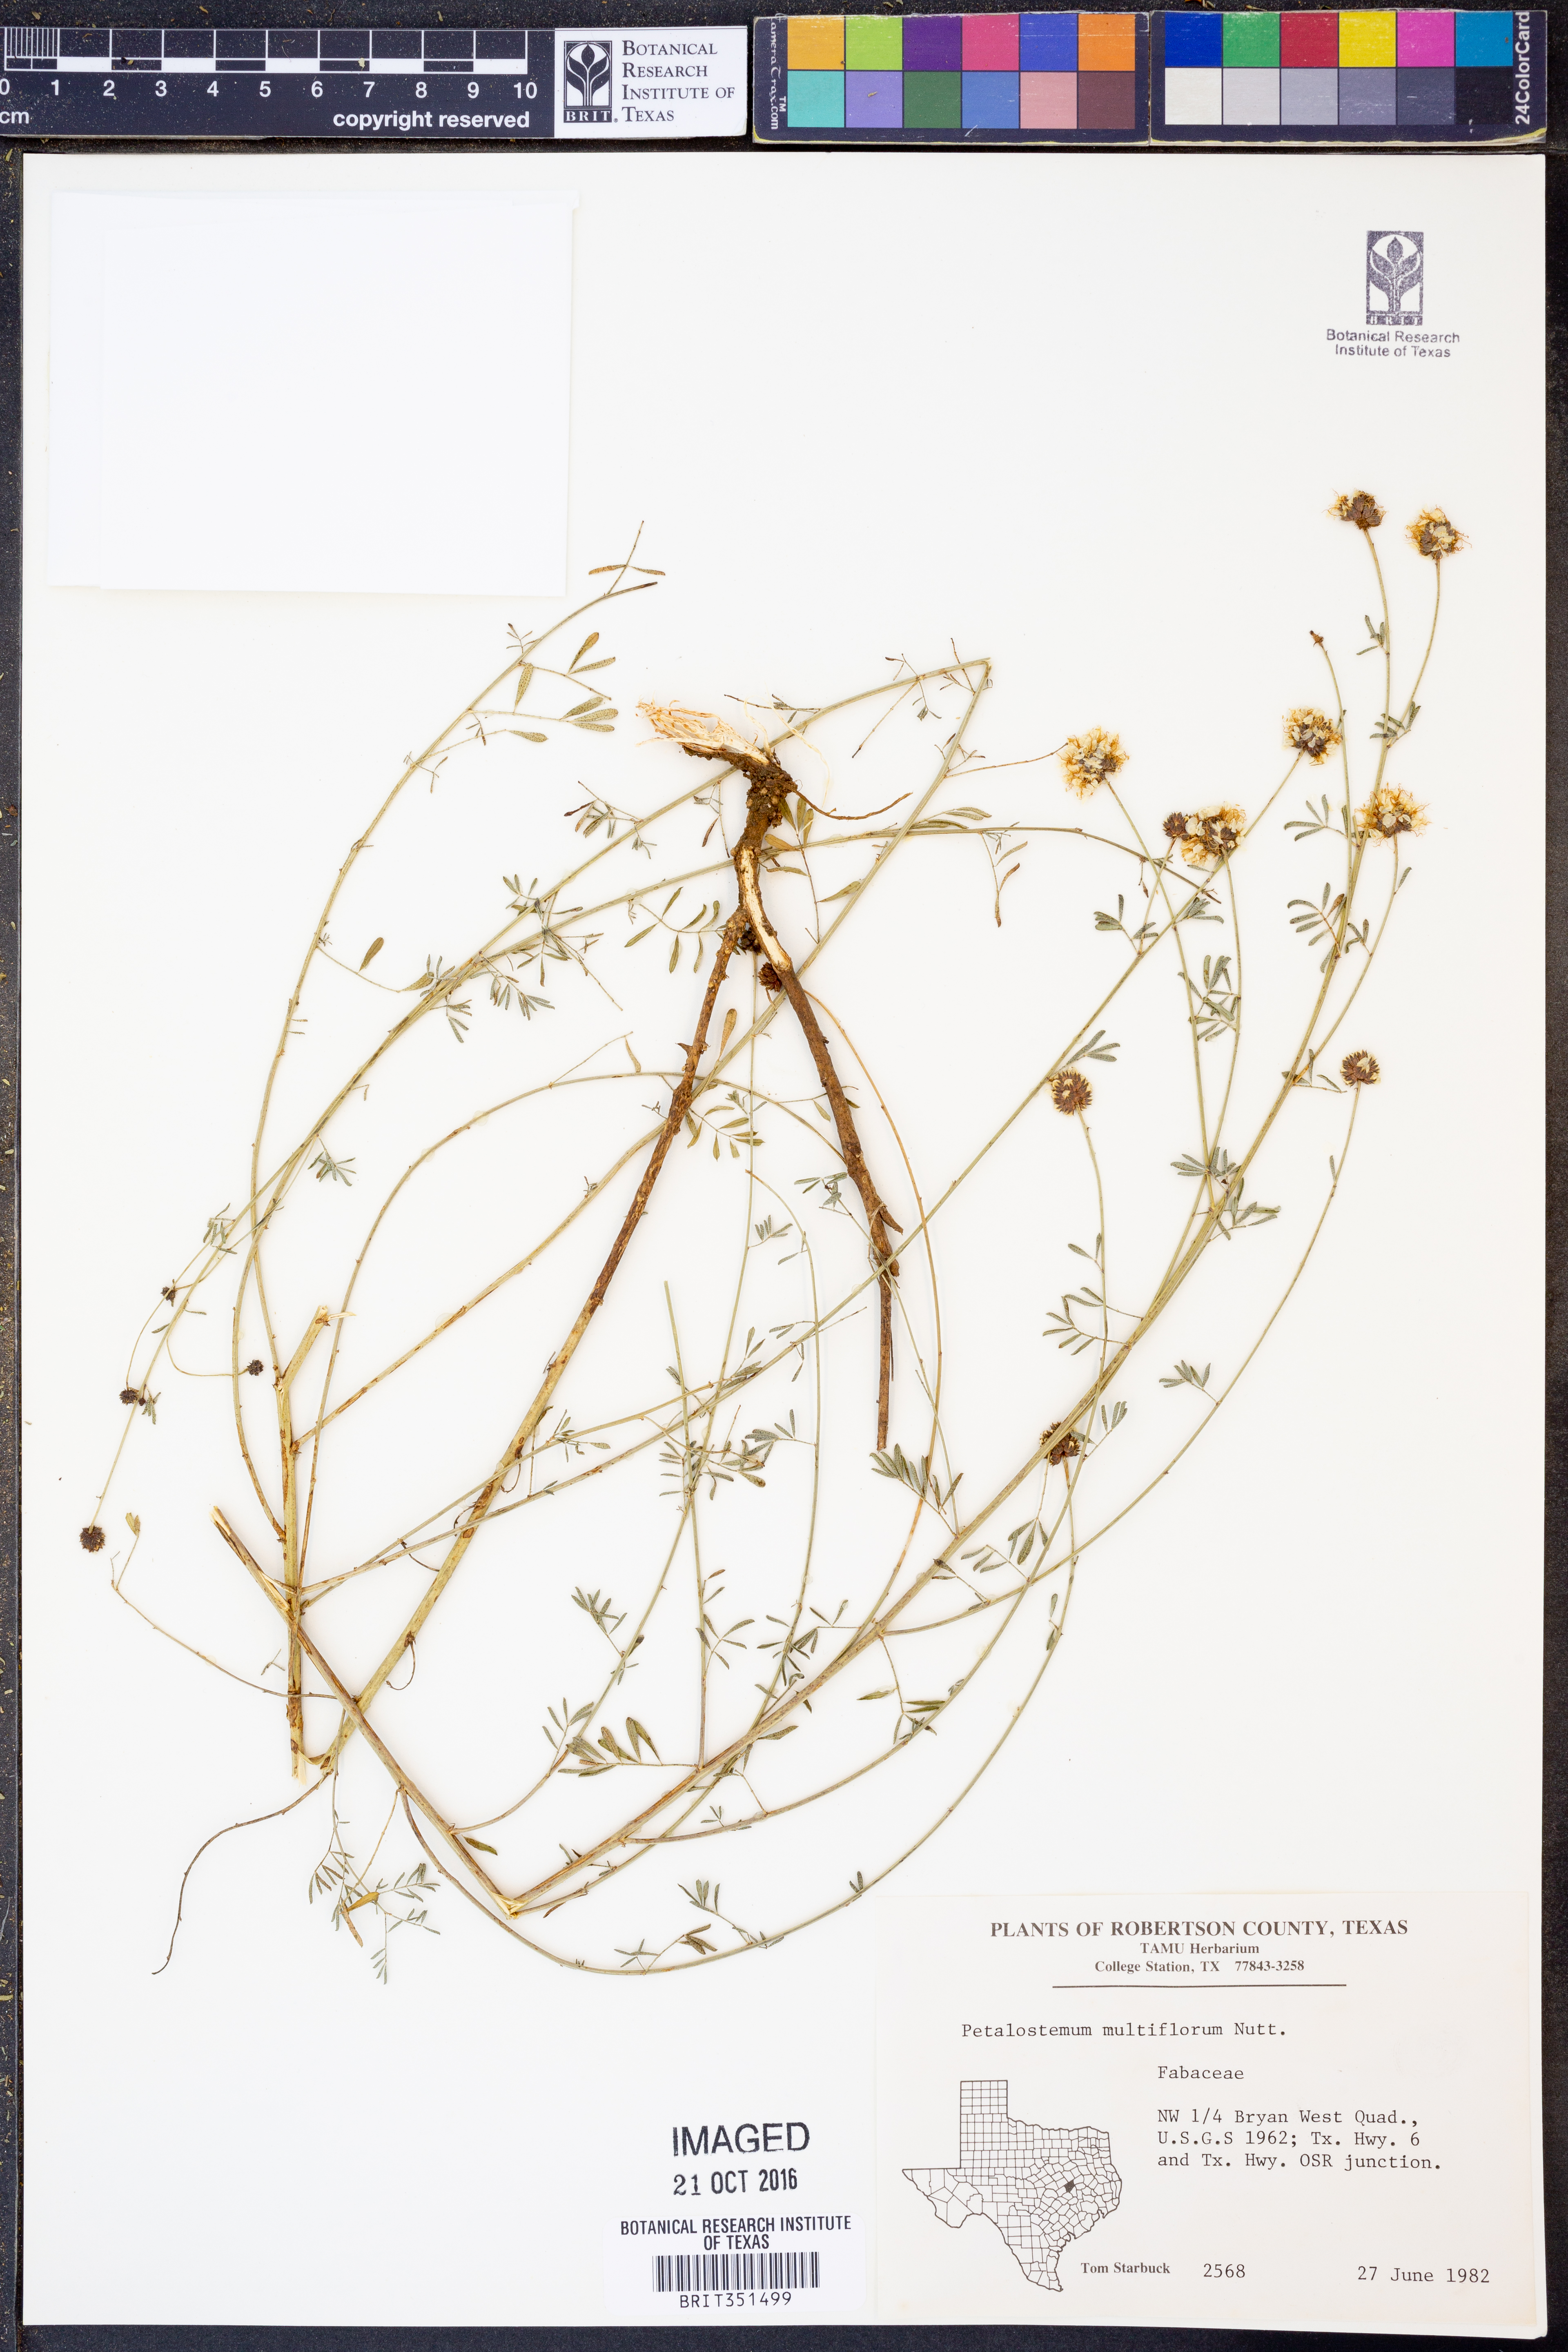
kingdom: Plantae
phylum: Tracheophyta
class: Magnoliopsida
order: Fabales
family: Fabaceae
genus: Dalea
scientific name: Dalea multiflora
